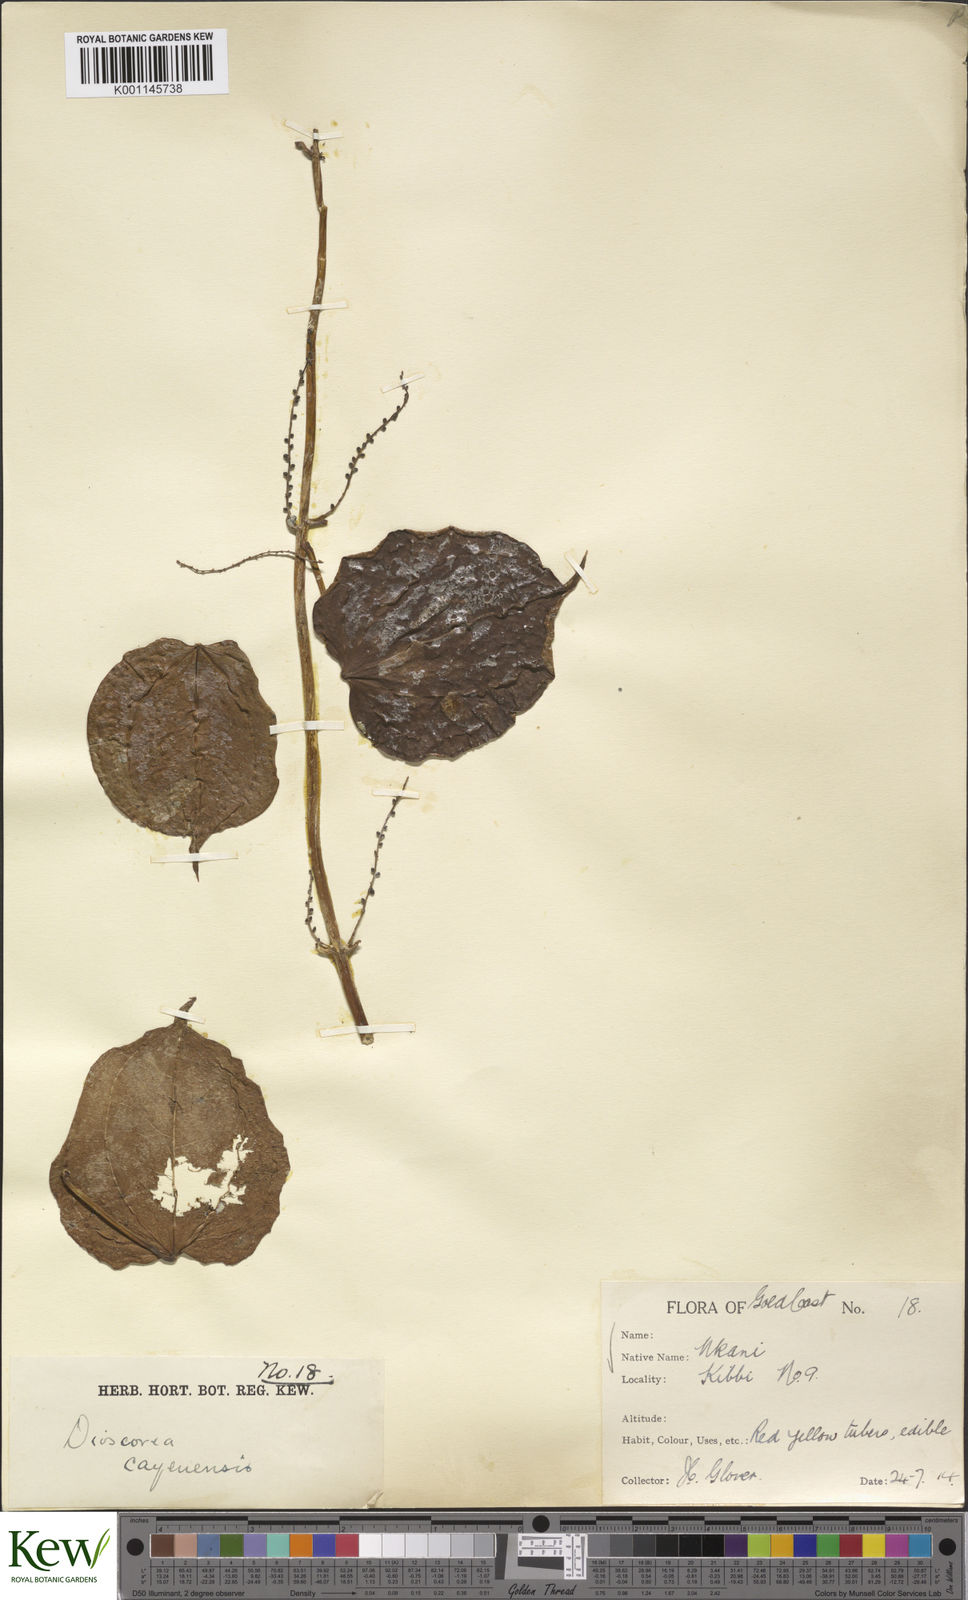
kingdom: Plantae
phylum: Tracheophyta
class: Liliopsida
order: Dioscoreales
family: Dioscoreaceae
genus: Dioscorea
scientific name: Dioscorea cayenensis
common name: Attoto yam
